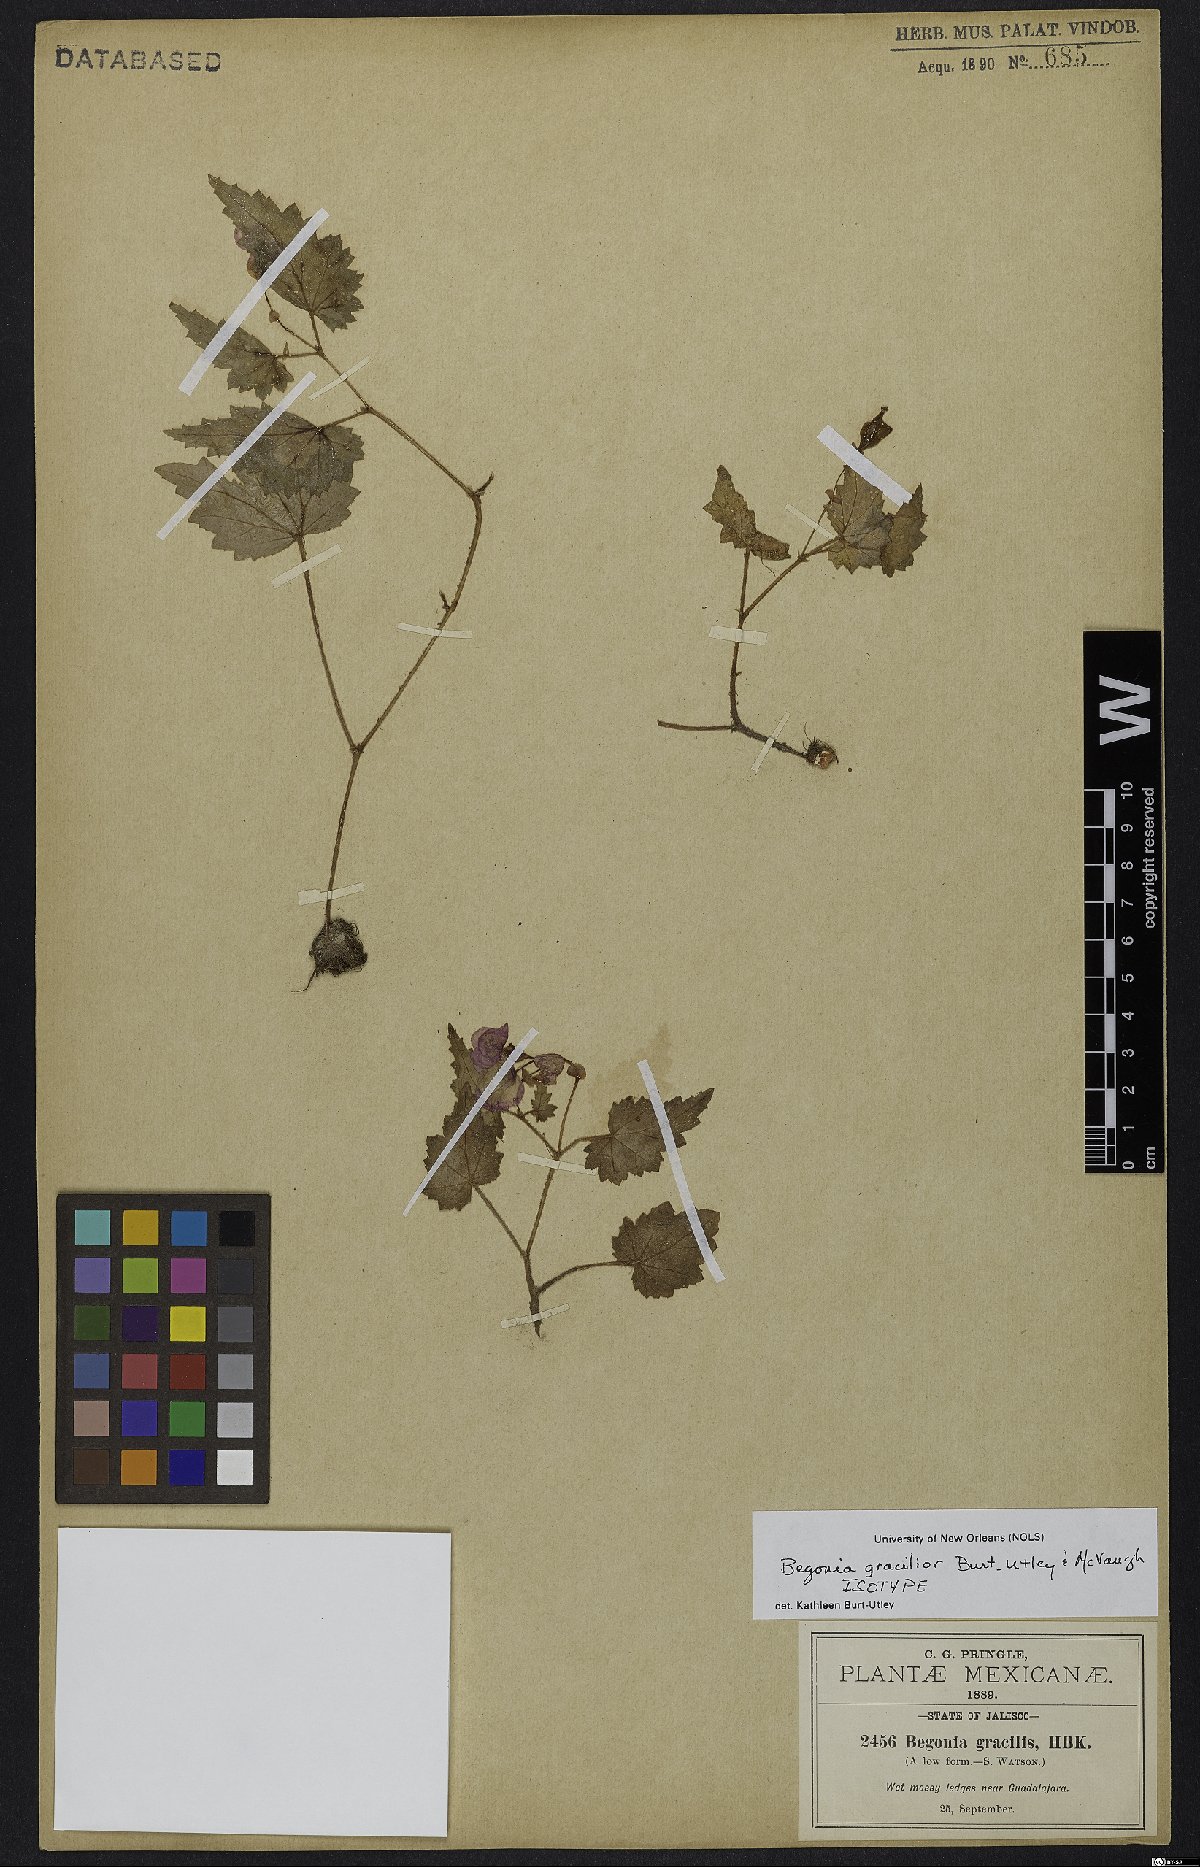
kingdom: Plantae
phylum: Tracheophyta
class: Magnoliopsida
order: Cucurbitales
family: Begoniaceae
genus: Begonia
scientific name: Begonia gracilior
